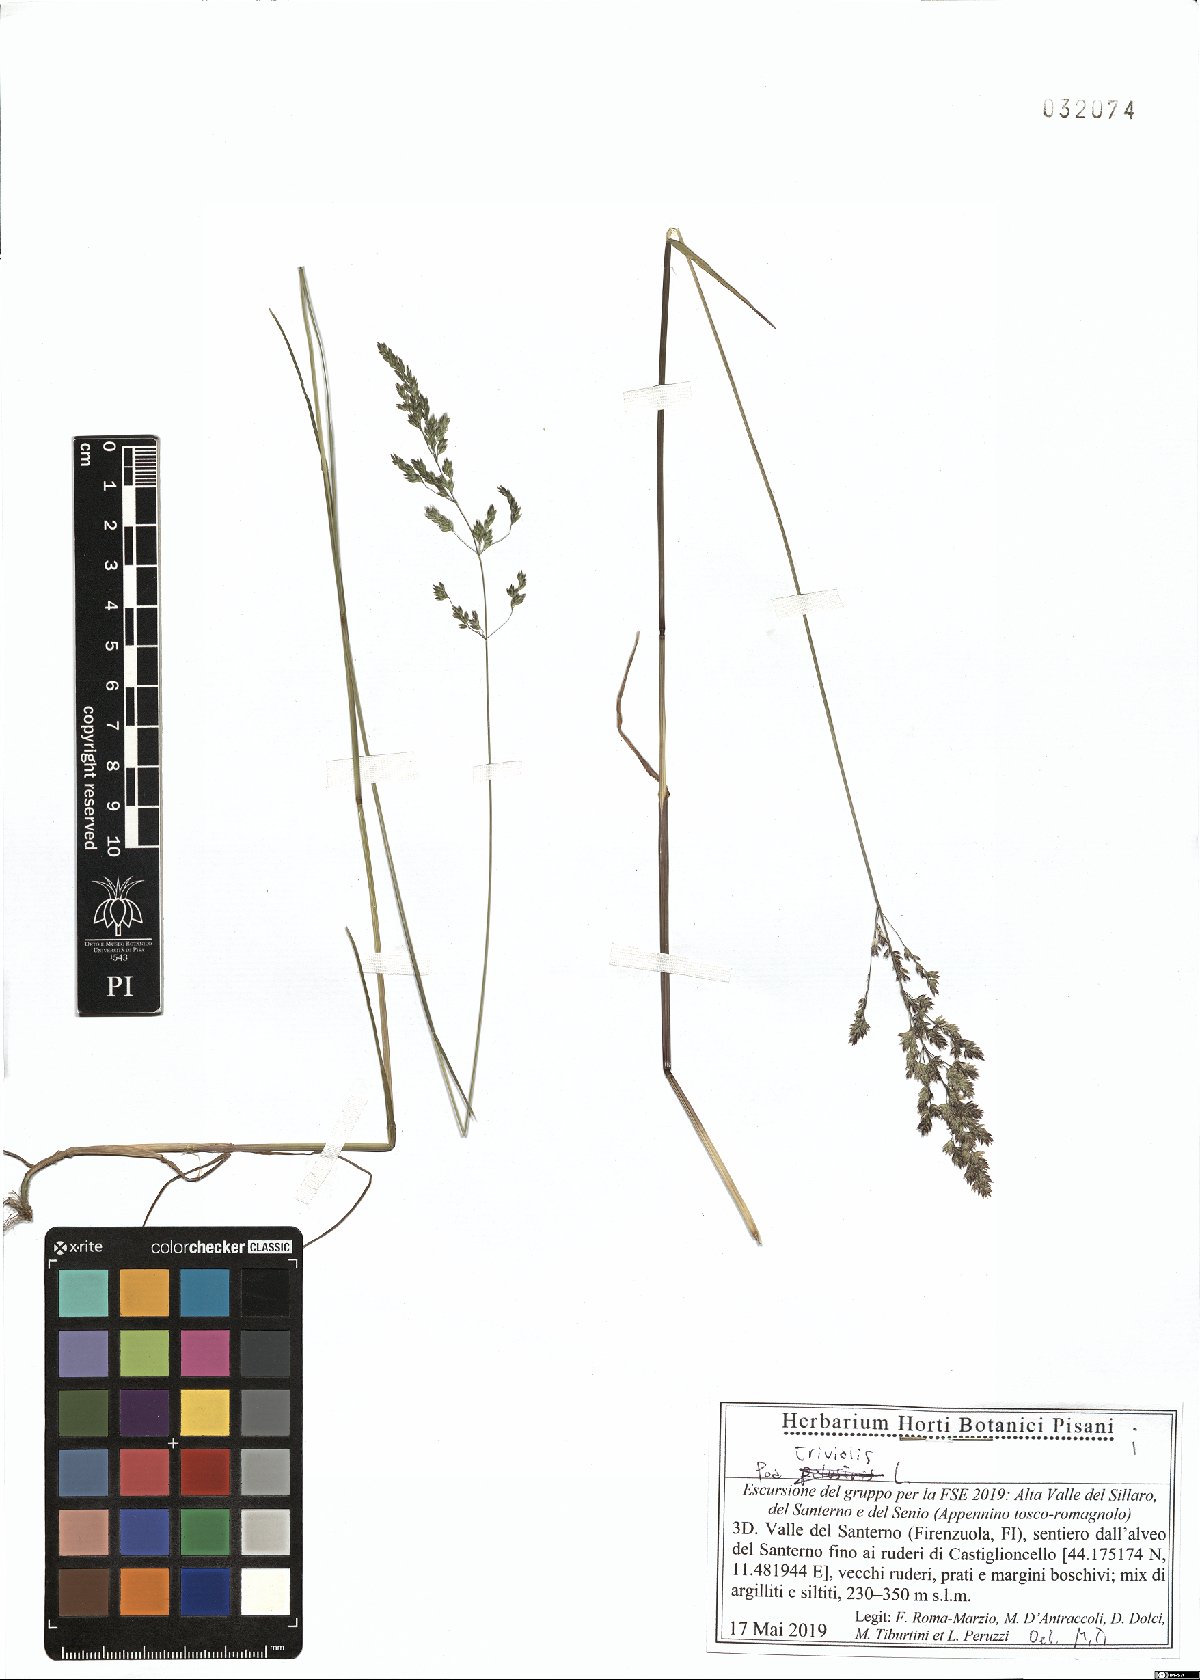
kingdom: Plantae
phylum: Tracheophyta
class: Liliopsida
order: Poales
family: Poaceae
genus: Poa
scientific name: Poa trivialis
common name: Rough bluegrass
